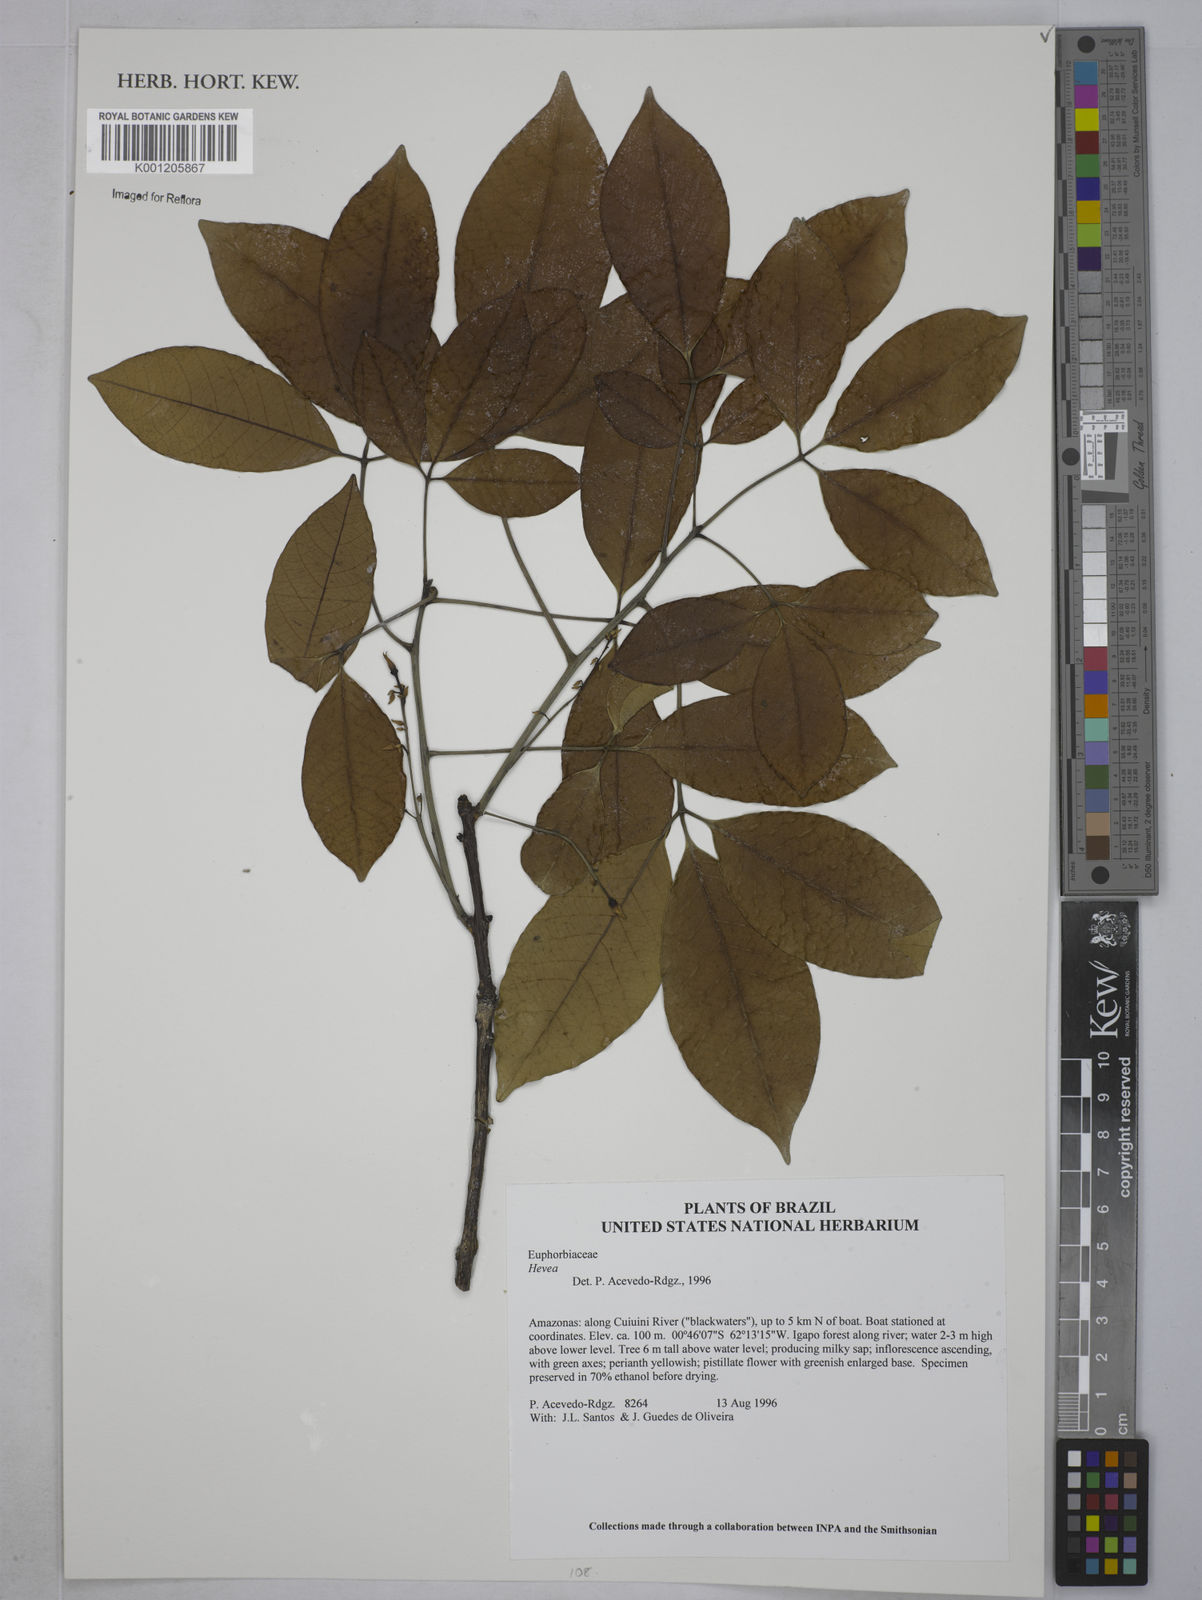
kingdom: Plantae
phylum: Tracheophyta
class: Magnoliopsida
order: Malpighiales
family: Euphorbiaceae
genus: Hevea
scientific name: Hevea
